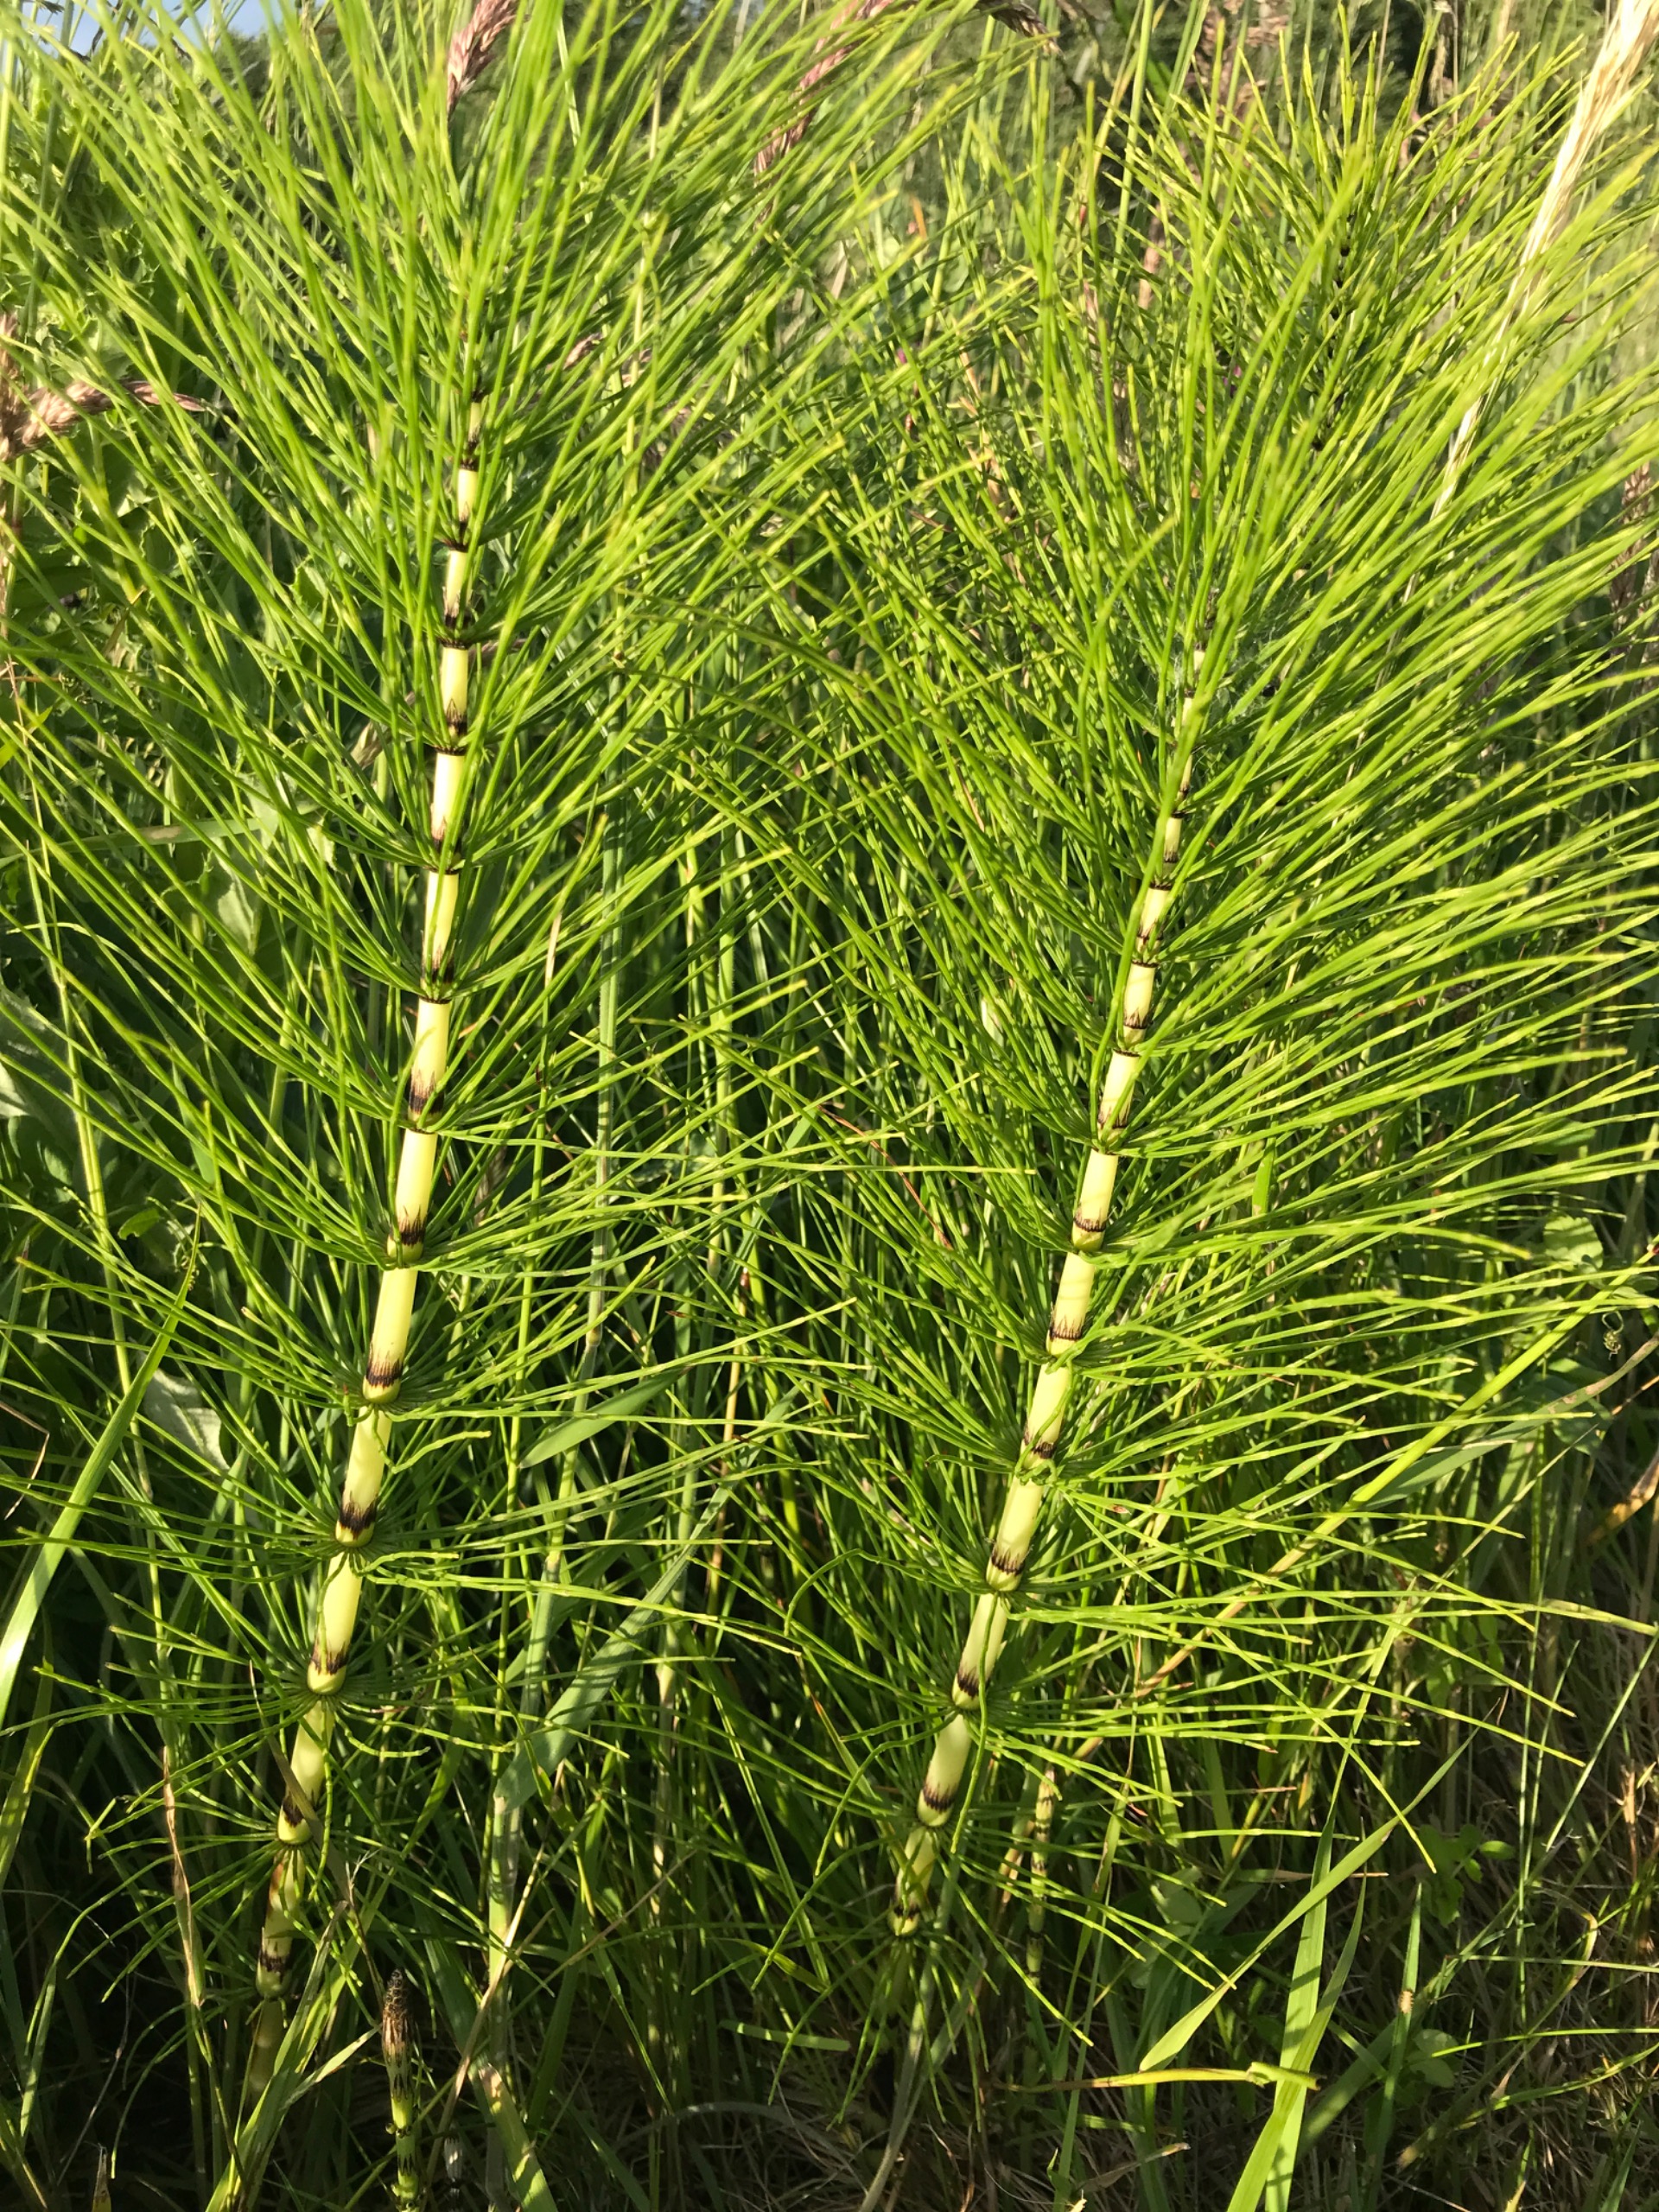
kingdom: Plantae
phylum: Tracheophyta
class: Polypodiopsida
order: Equisetales
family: Equisetaceae
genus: Equisetum
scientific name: Equisetum telmateia
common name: Elfenbens-padderok
